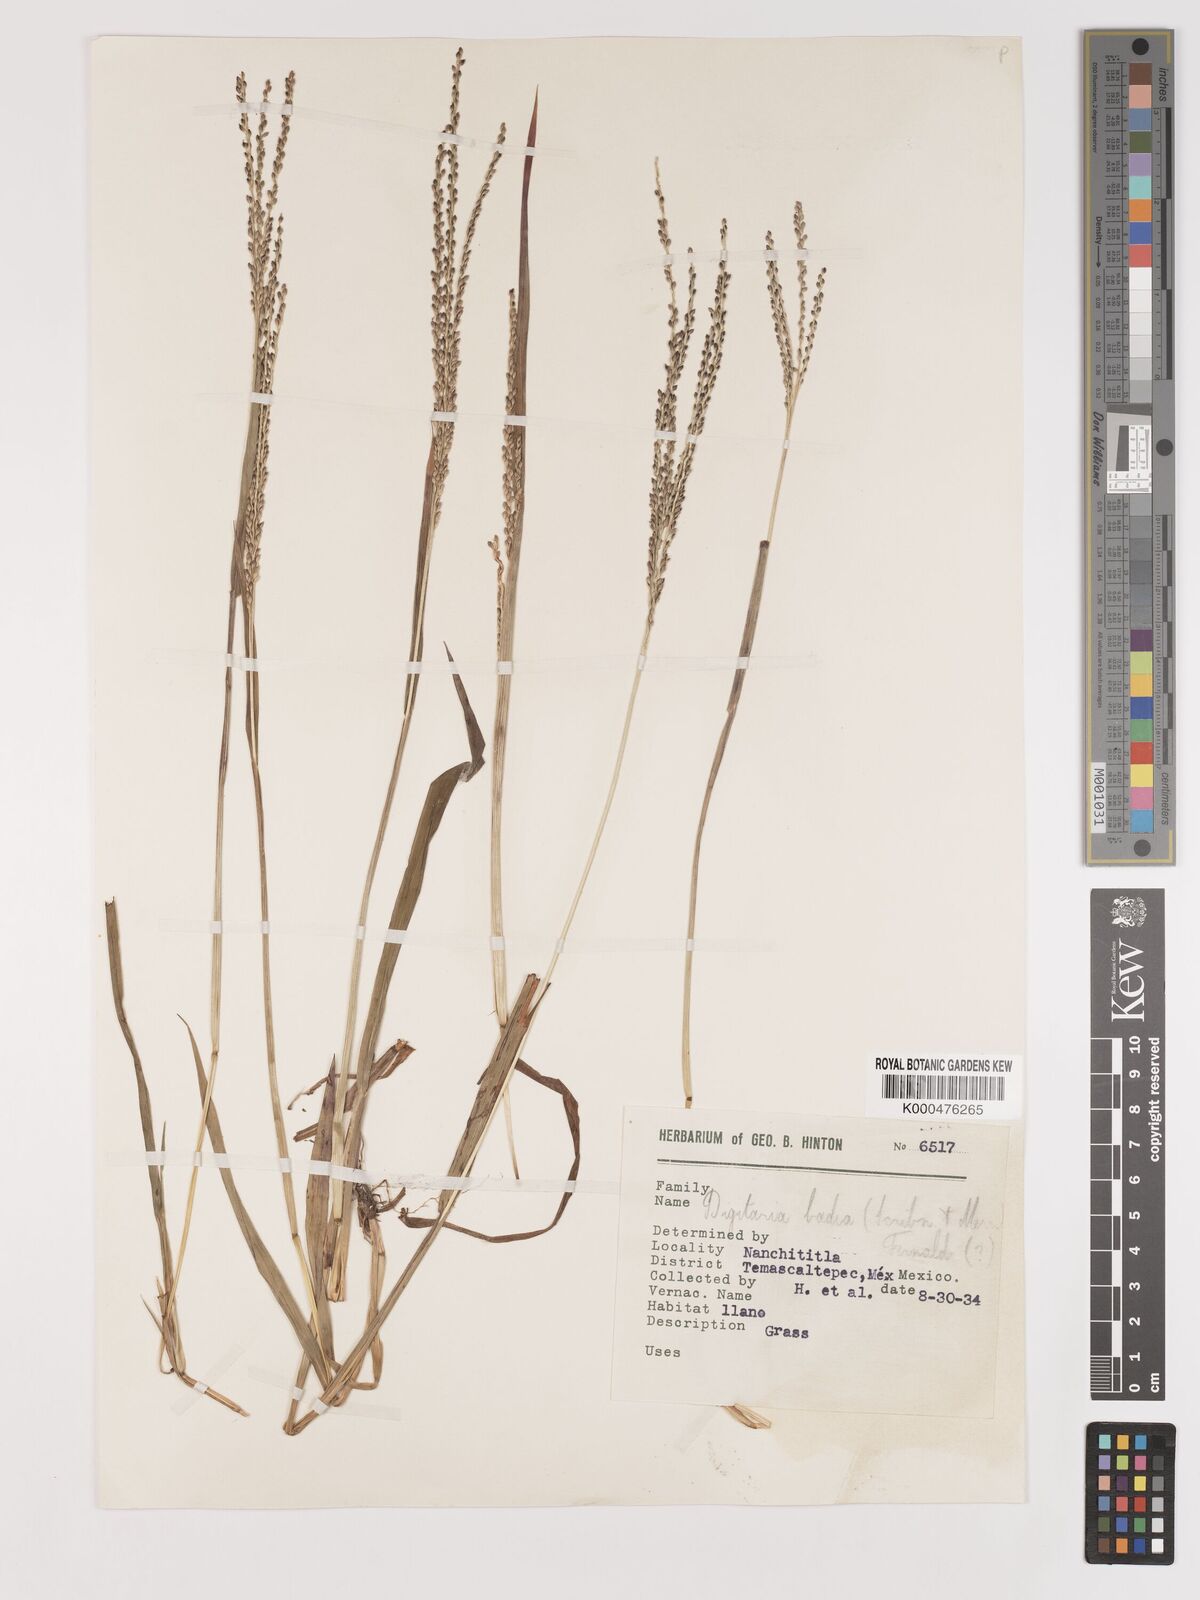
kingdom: Plantae
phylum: Tracheophyta
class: Liliopsida
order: Poales
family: Poaceae
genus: Digitaria
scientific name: Digitaria badia
